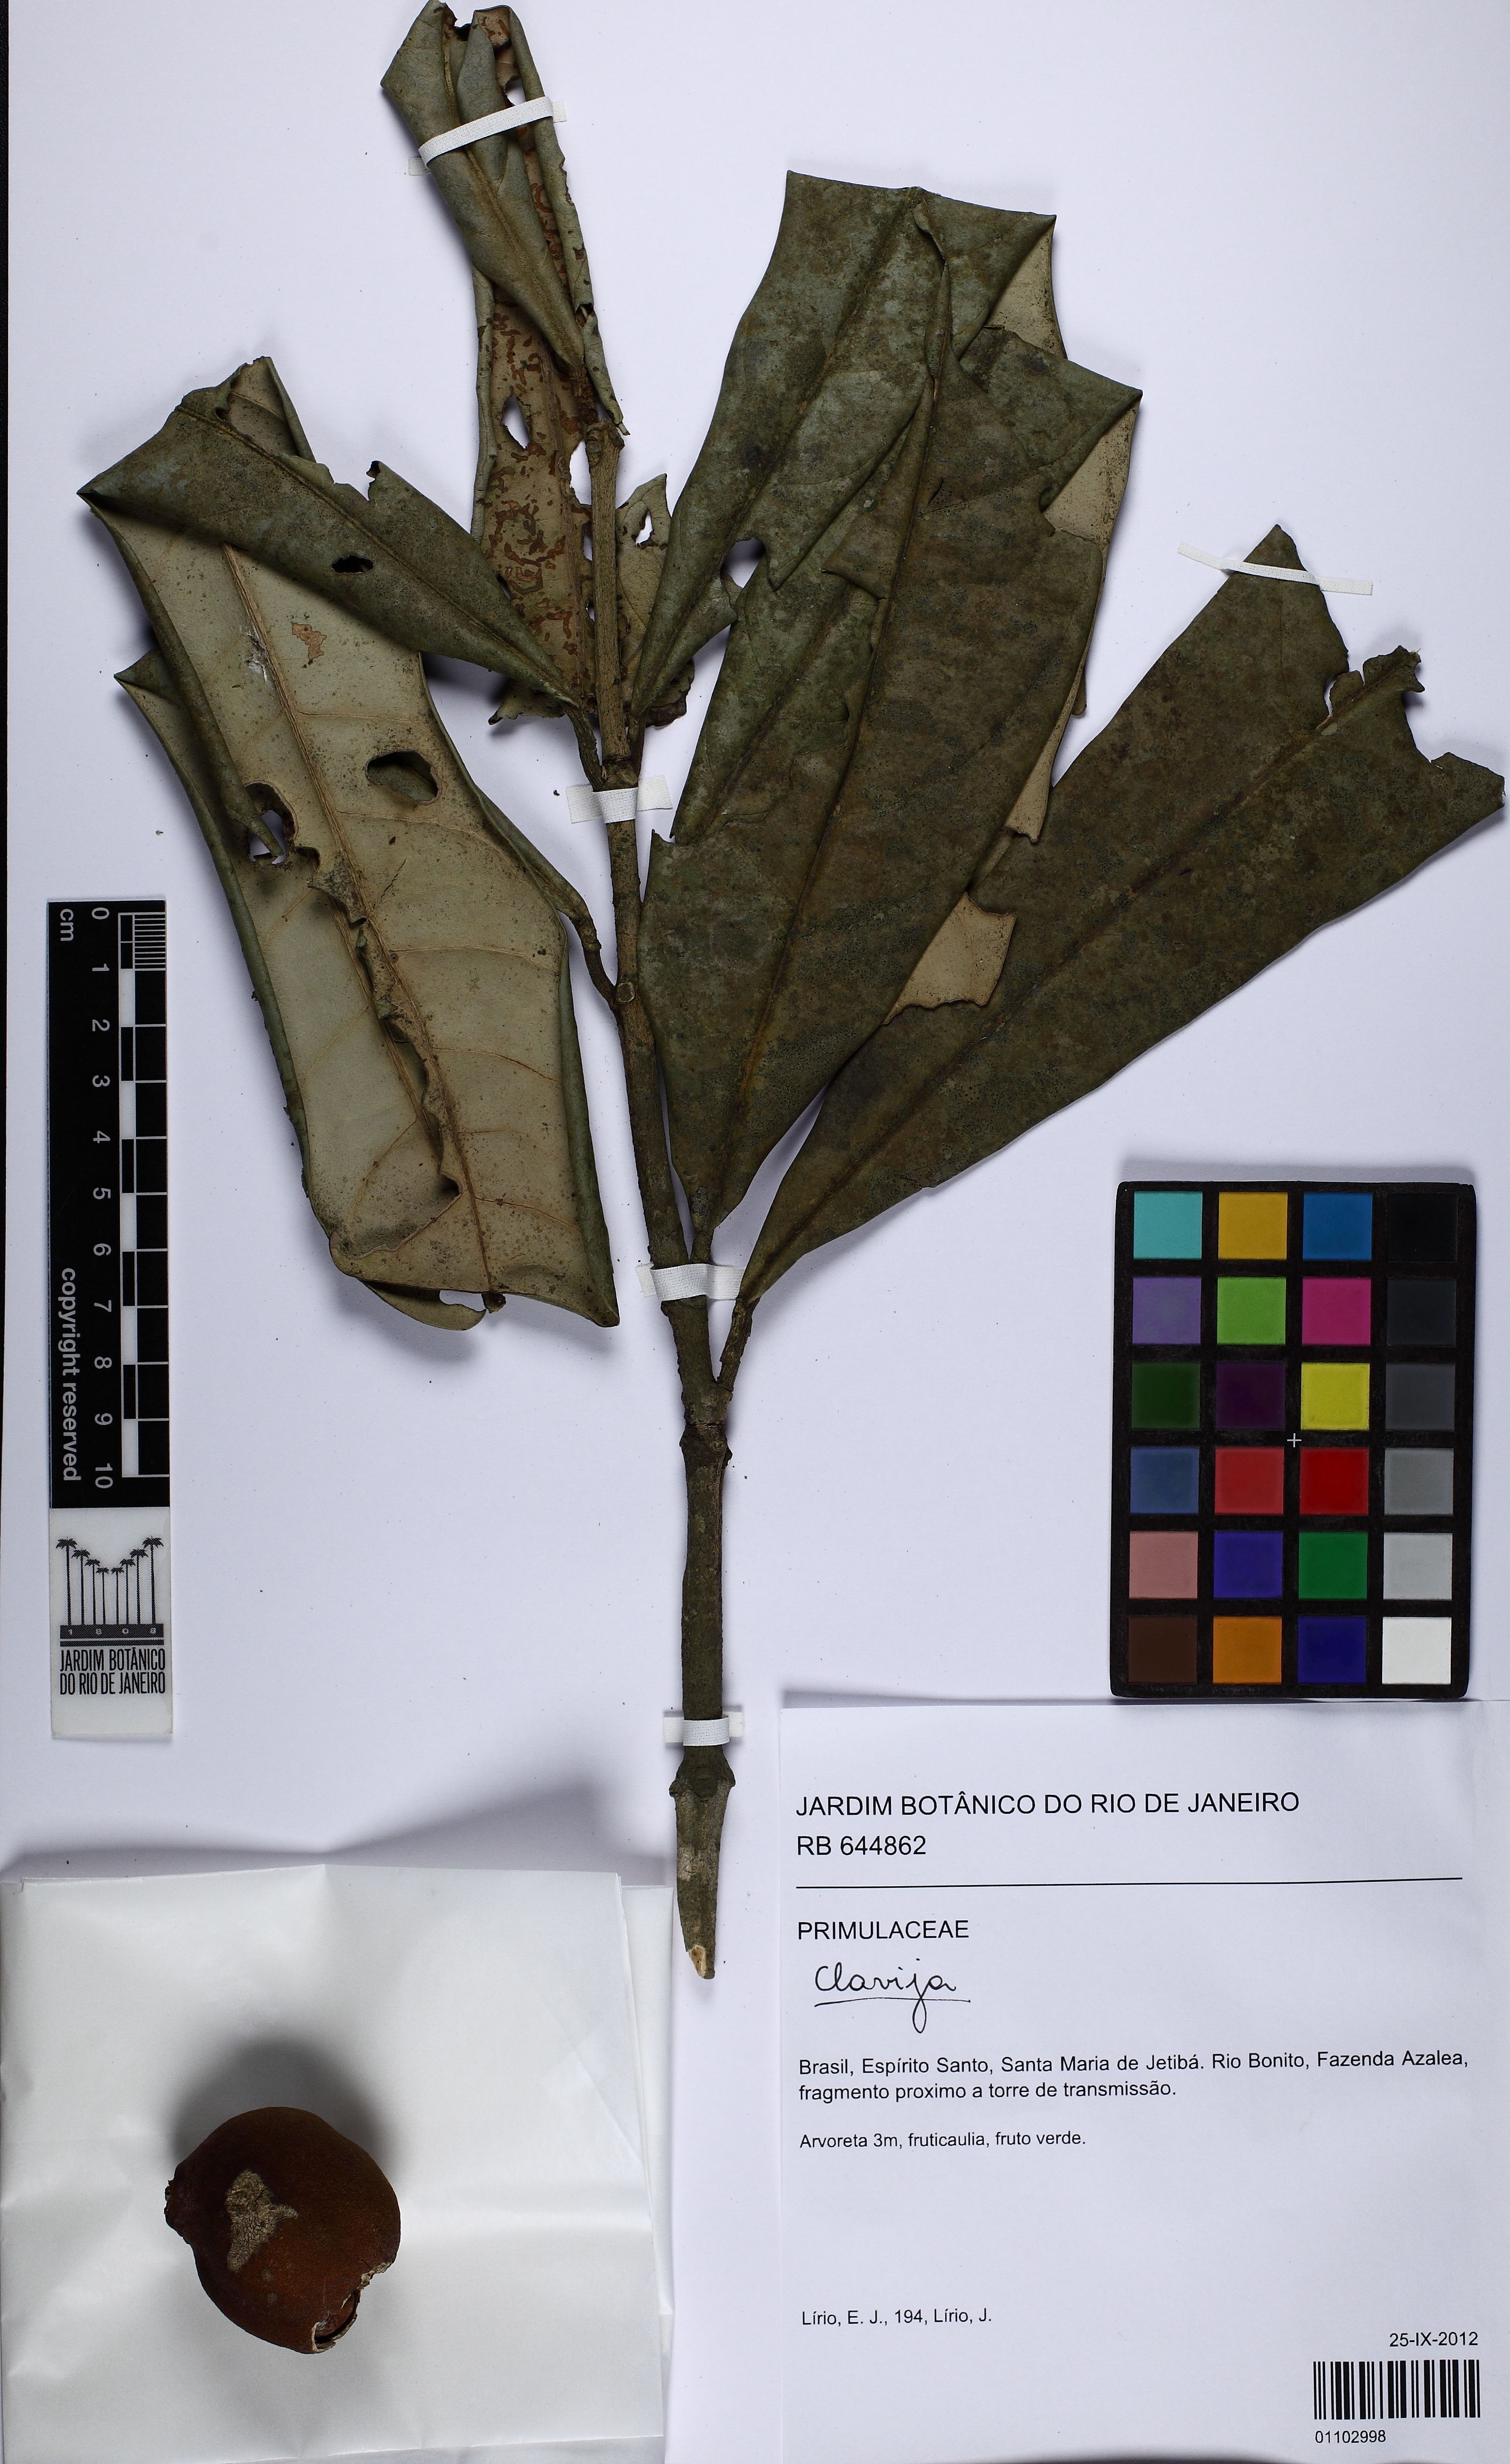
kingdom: Plantae
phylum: Tracheophyta
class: Magnoliopsida
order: Ericales
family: Primulaceae
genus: Clavija
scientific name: Clavija
